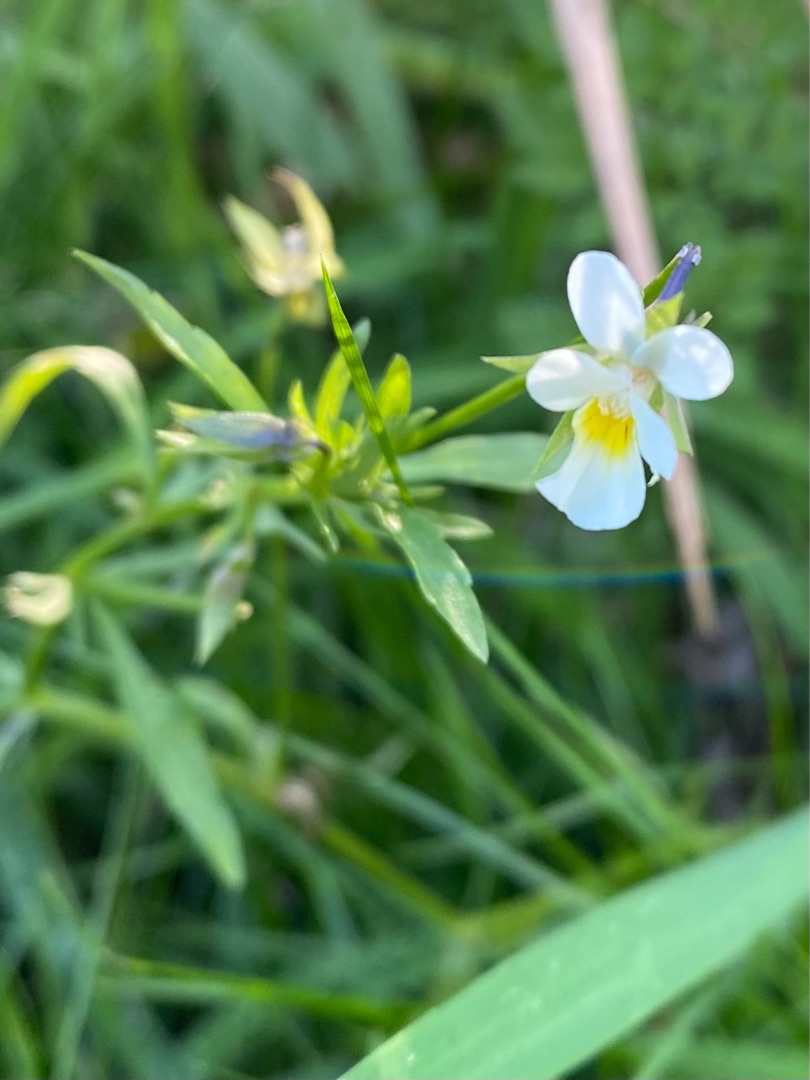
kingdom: Plantae
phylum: Tracheophyta
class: Magnoliopsida
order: Malpighiales
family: Violaceae
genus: Viola
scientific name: Viola arvensis
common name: Ager-stedmoderblomst
